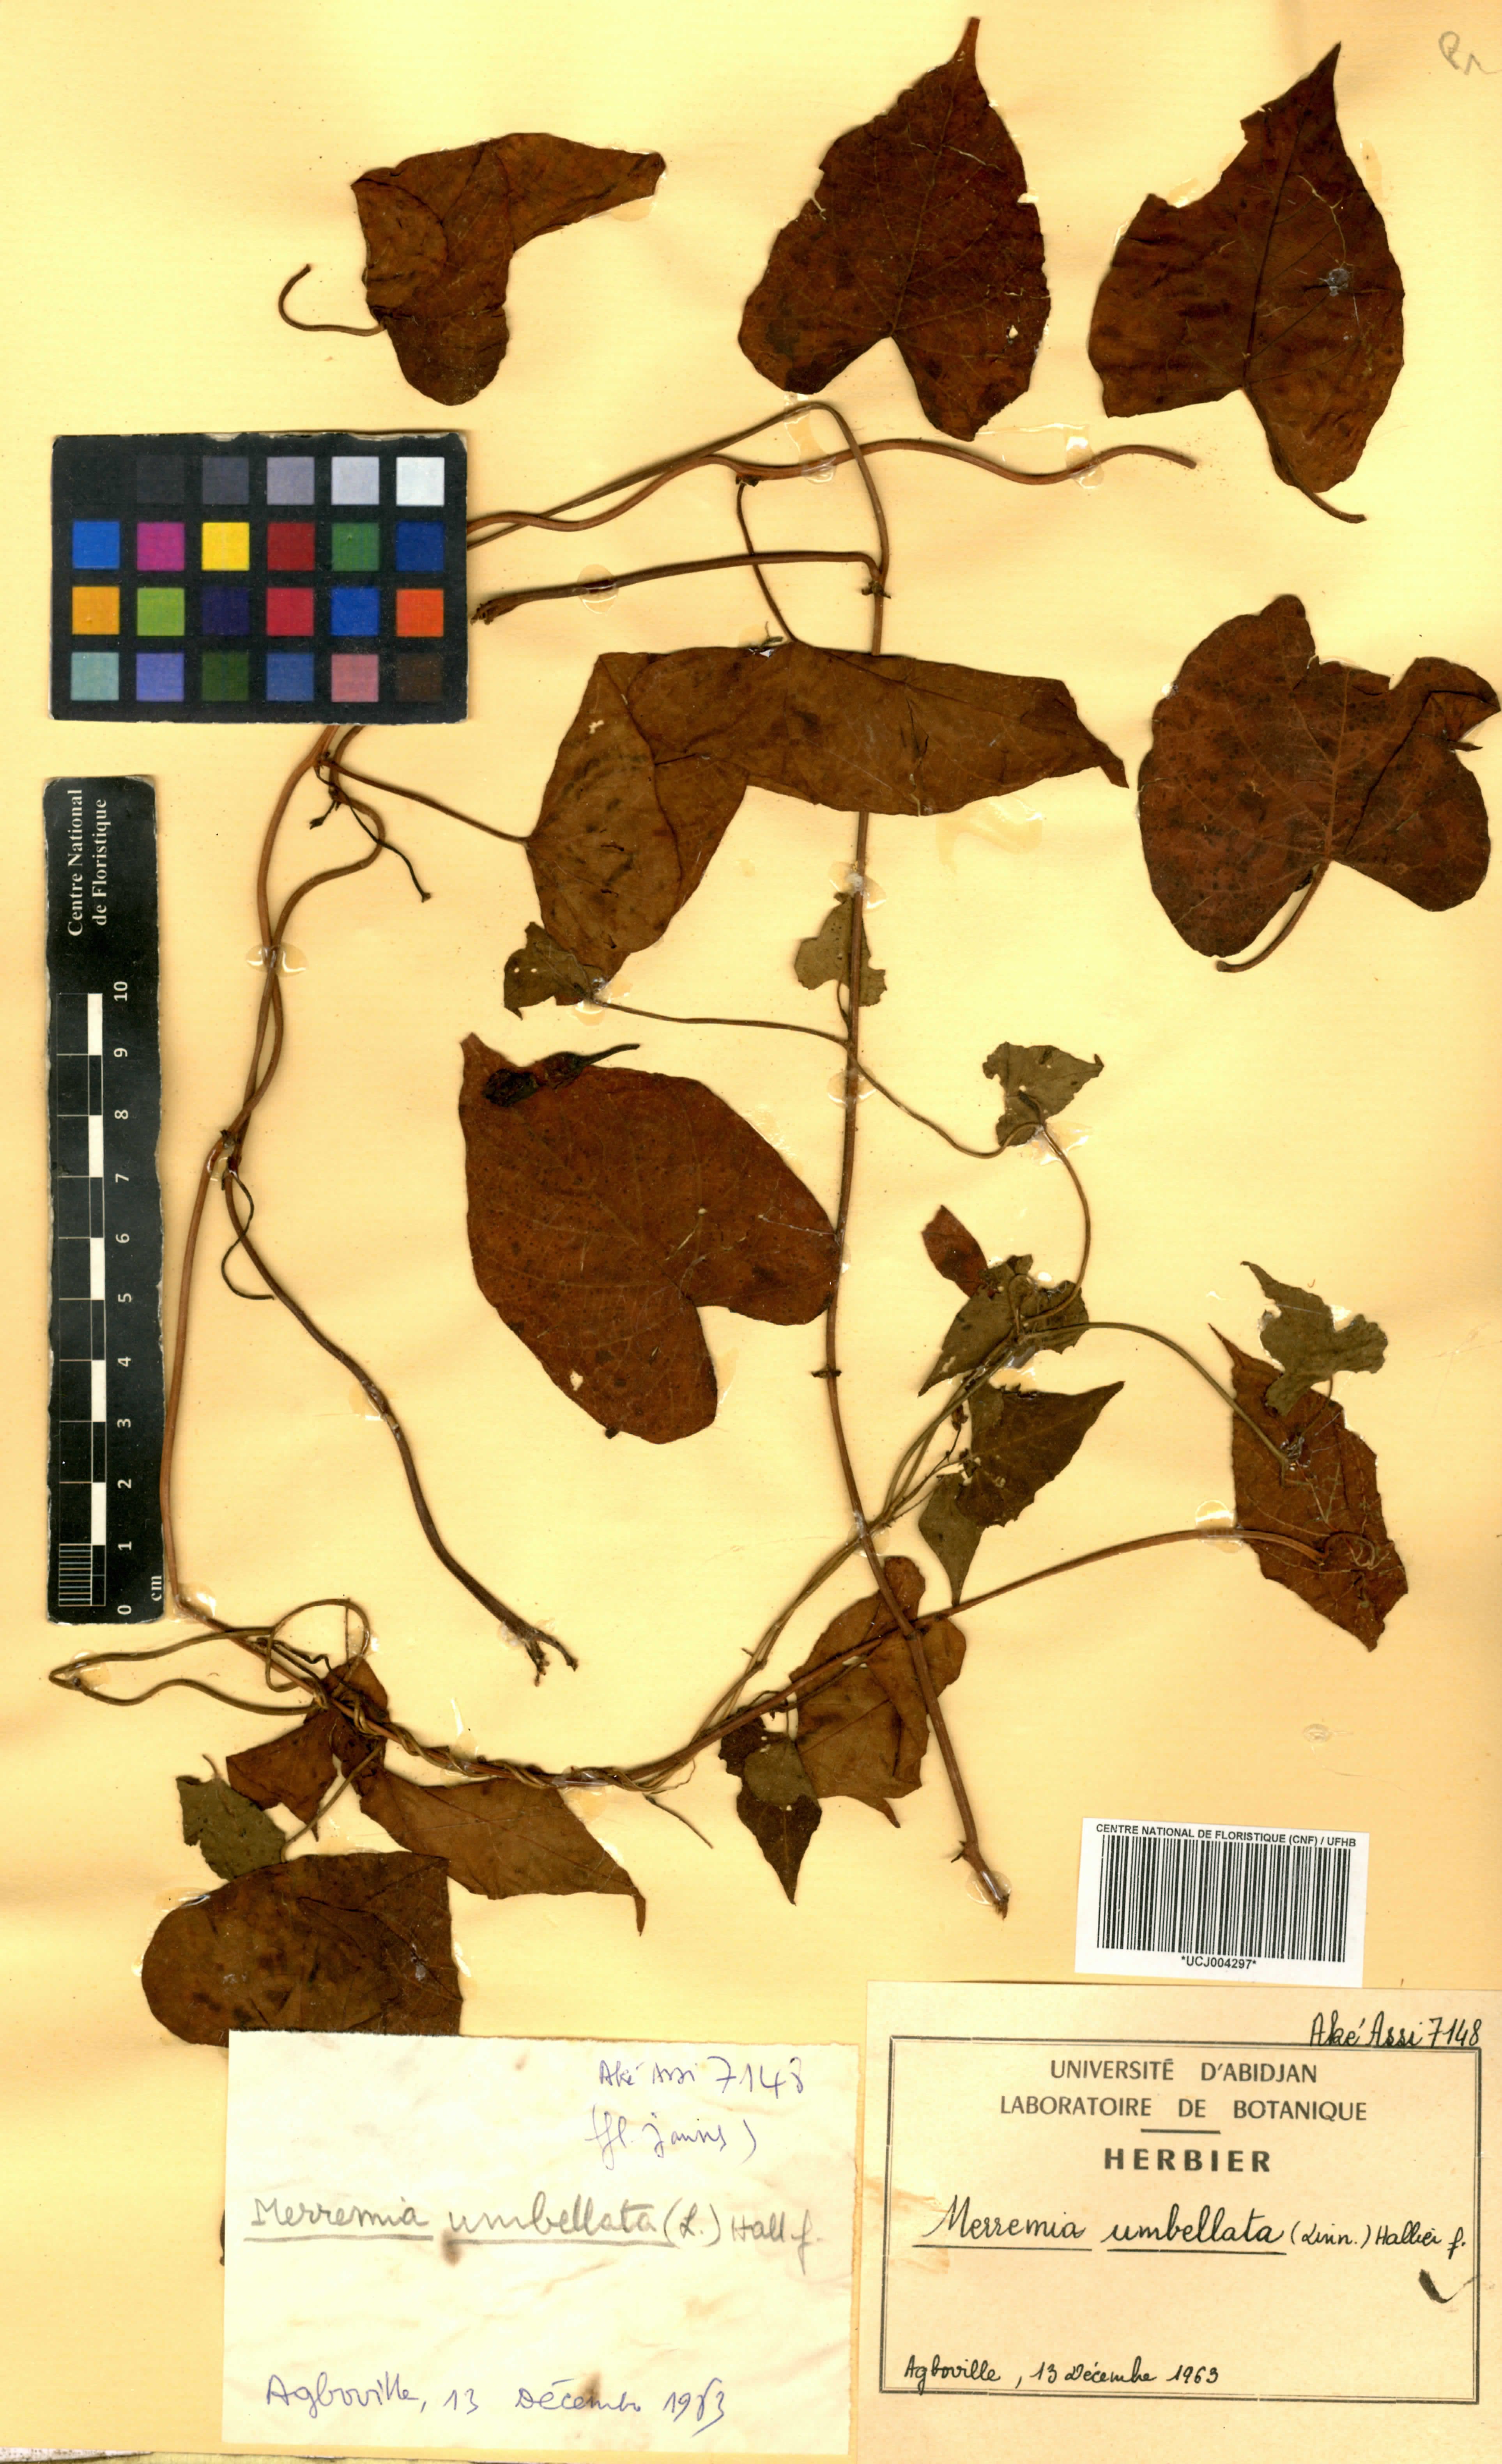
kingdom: Plantae
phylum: Tracheophyta
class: Magnoliopsida
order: Solanales
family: Convolvulaceae
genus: Camonea
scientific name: Camonea umbellata
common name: Hogvine
